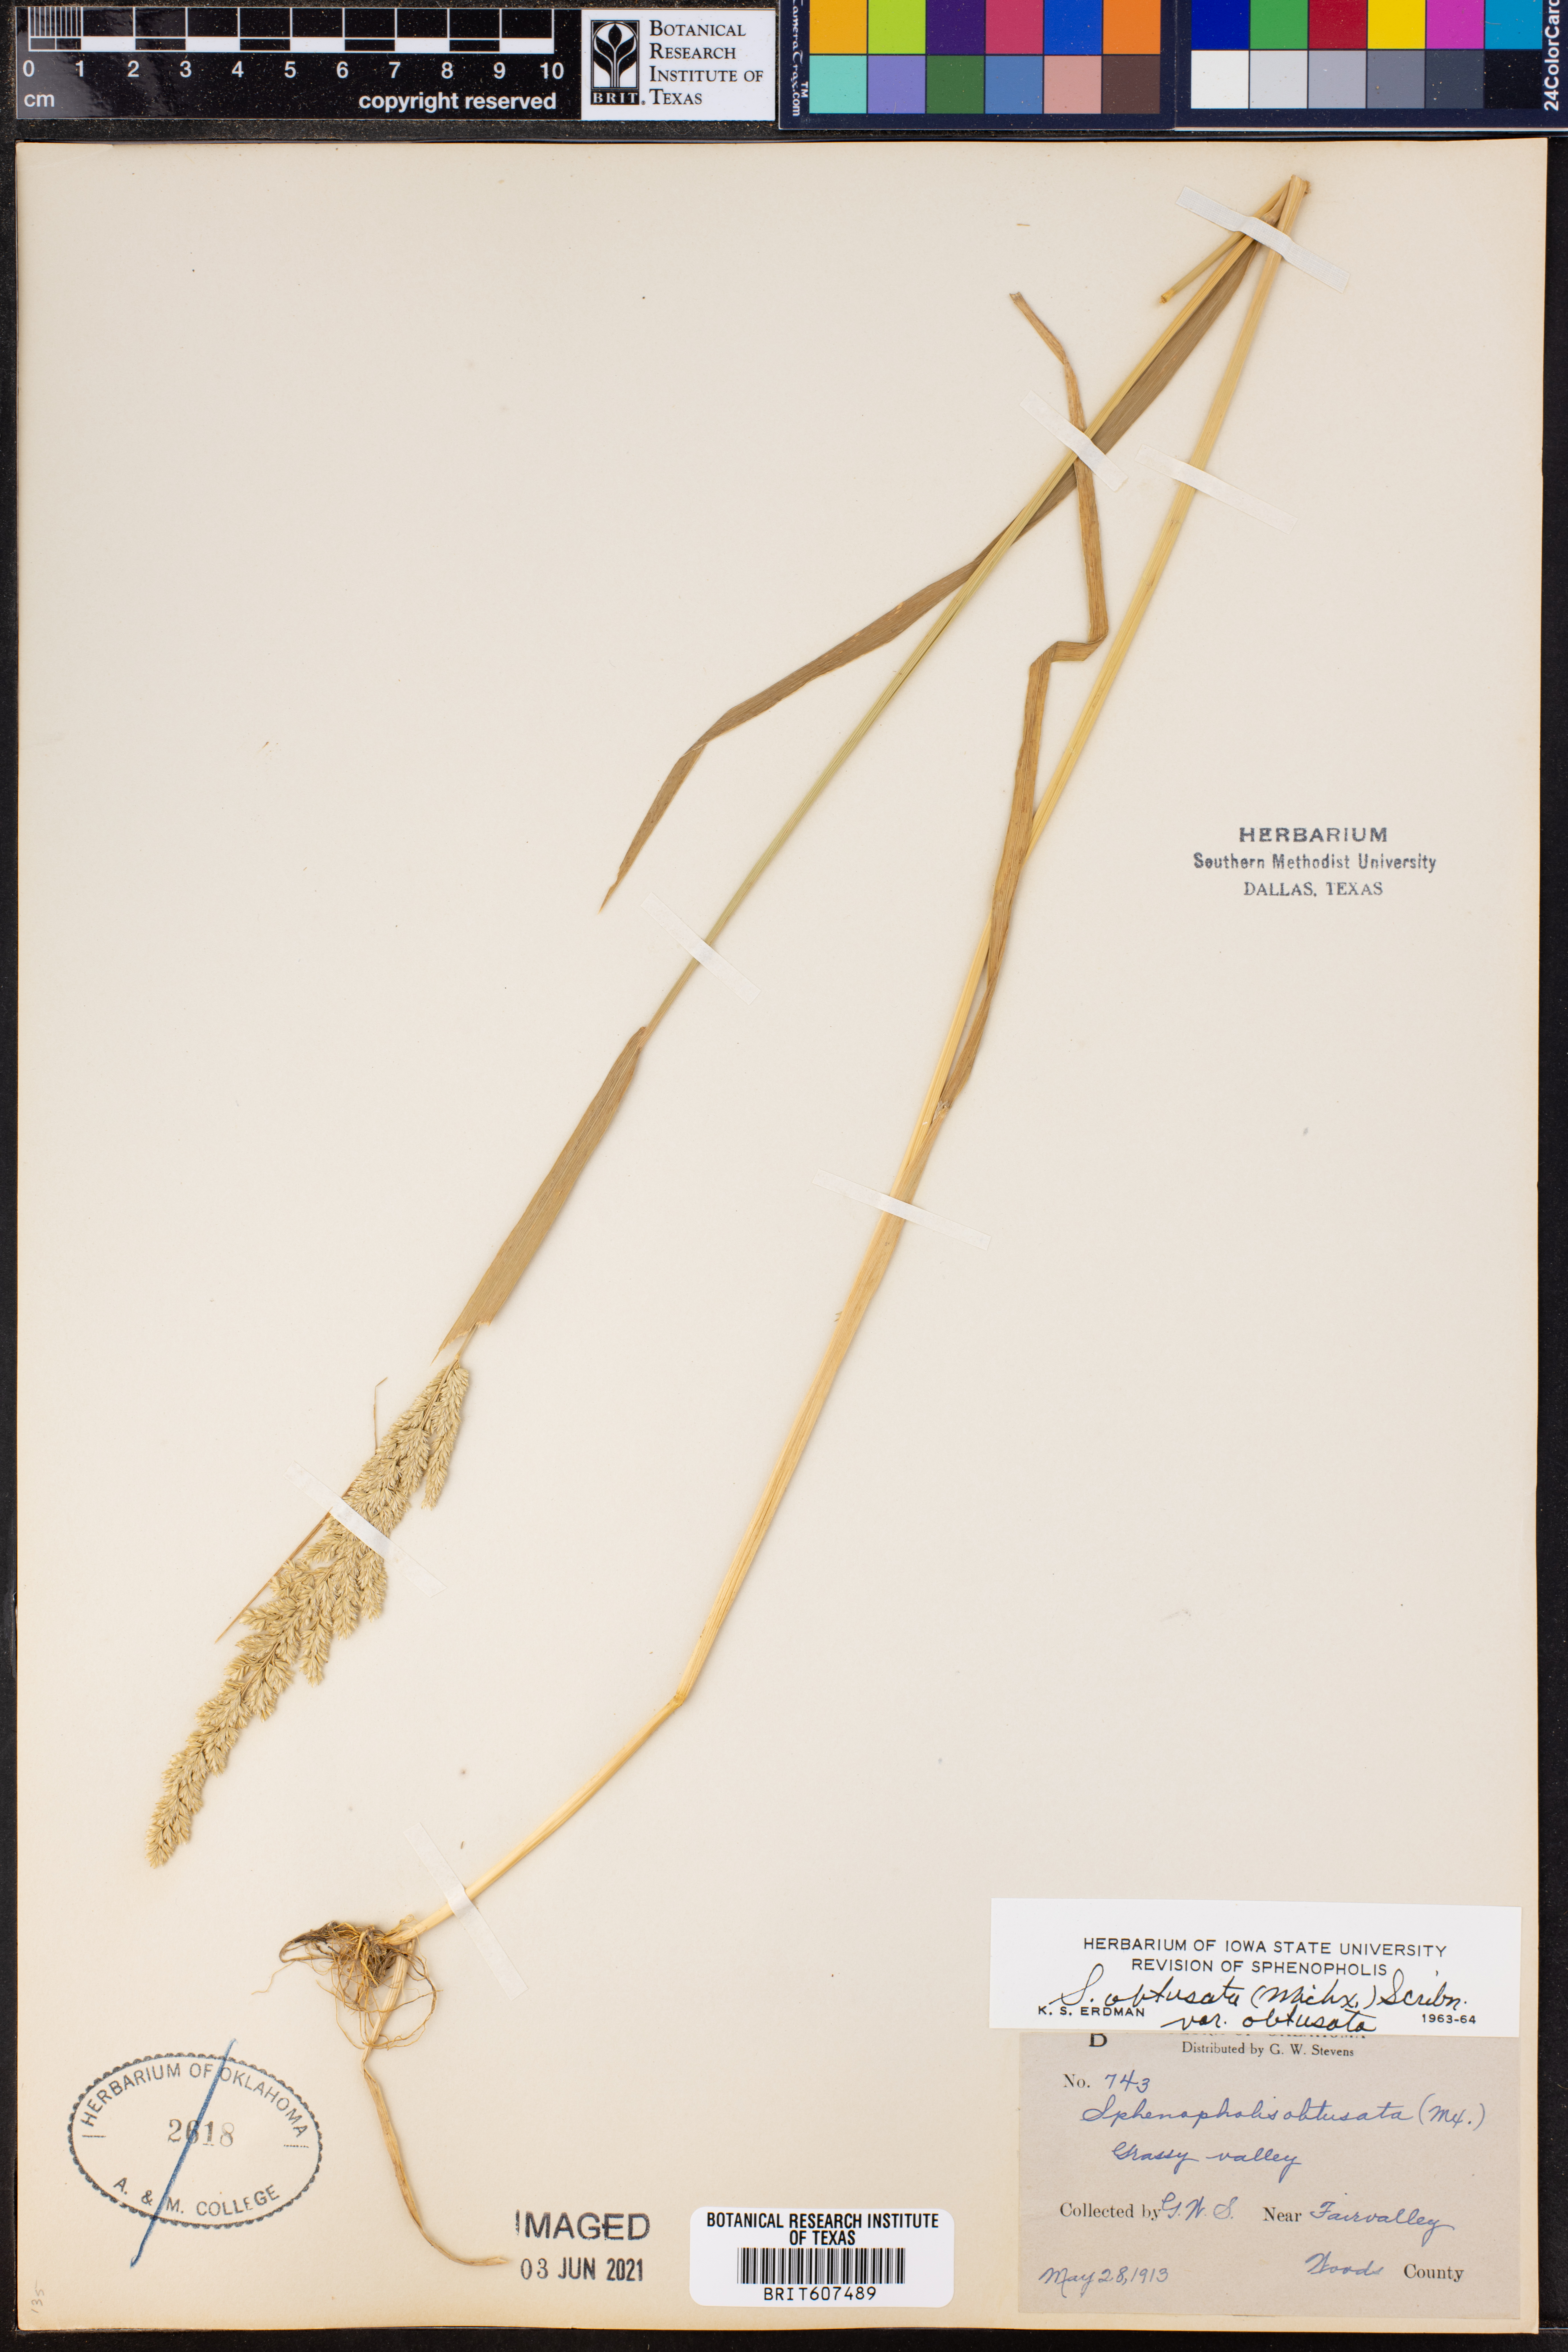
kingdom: Plantae
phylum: Tracheophyta
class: Liliopsida
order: Poales
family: Poaceae
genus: Sphenopholis
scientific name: Sphenopholis obtusata
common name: Prairie grass
